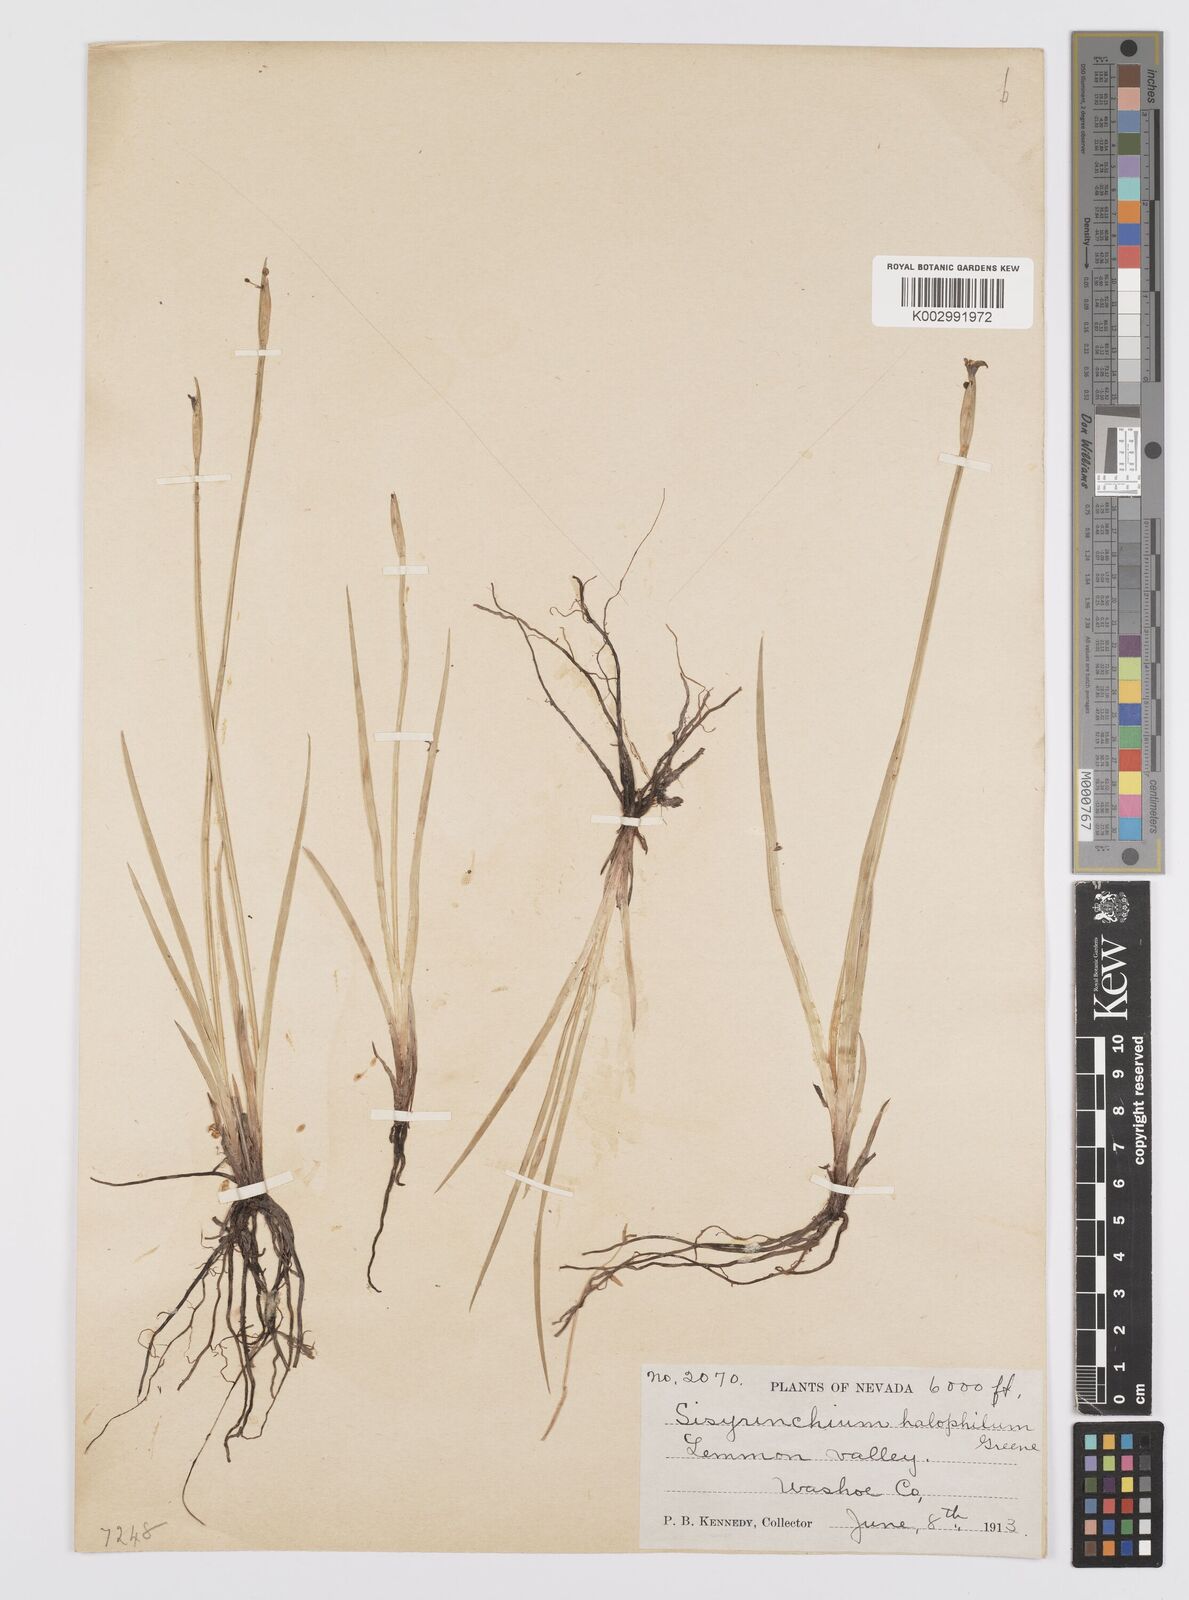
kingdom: Plantae
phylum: Tracheophyta
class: Liliopsida
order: Asparagales
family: Iridaceae
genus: Sisyrinchium
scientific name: Sisyrinchium halophilum
